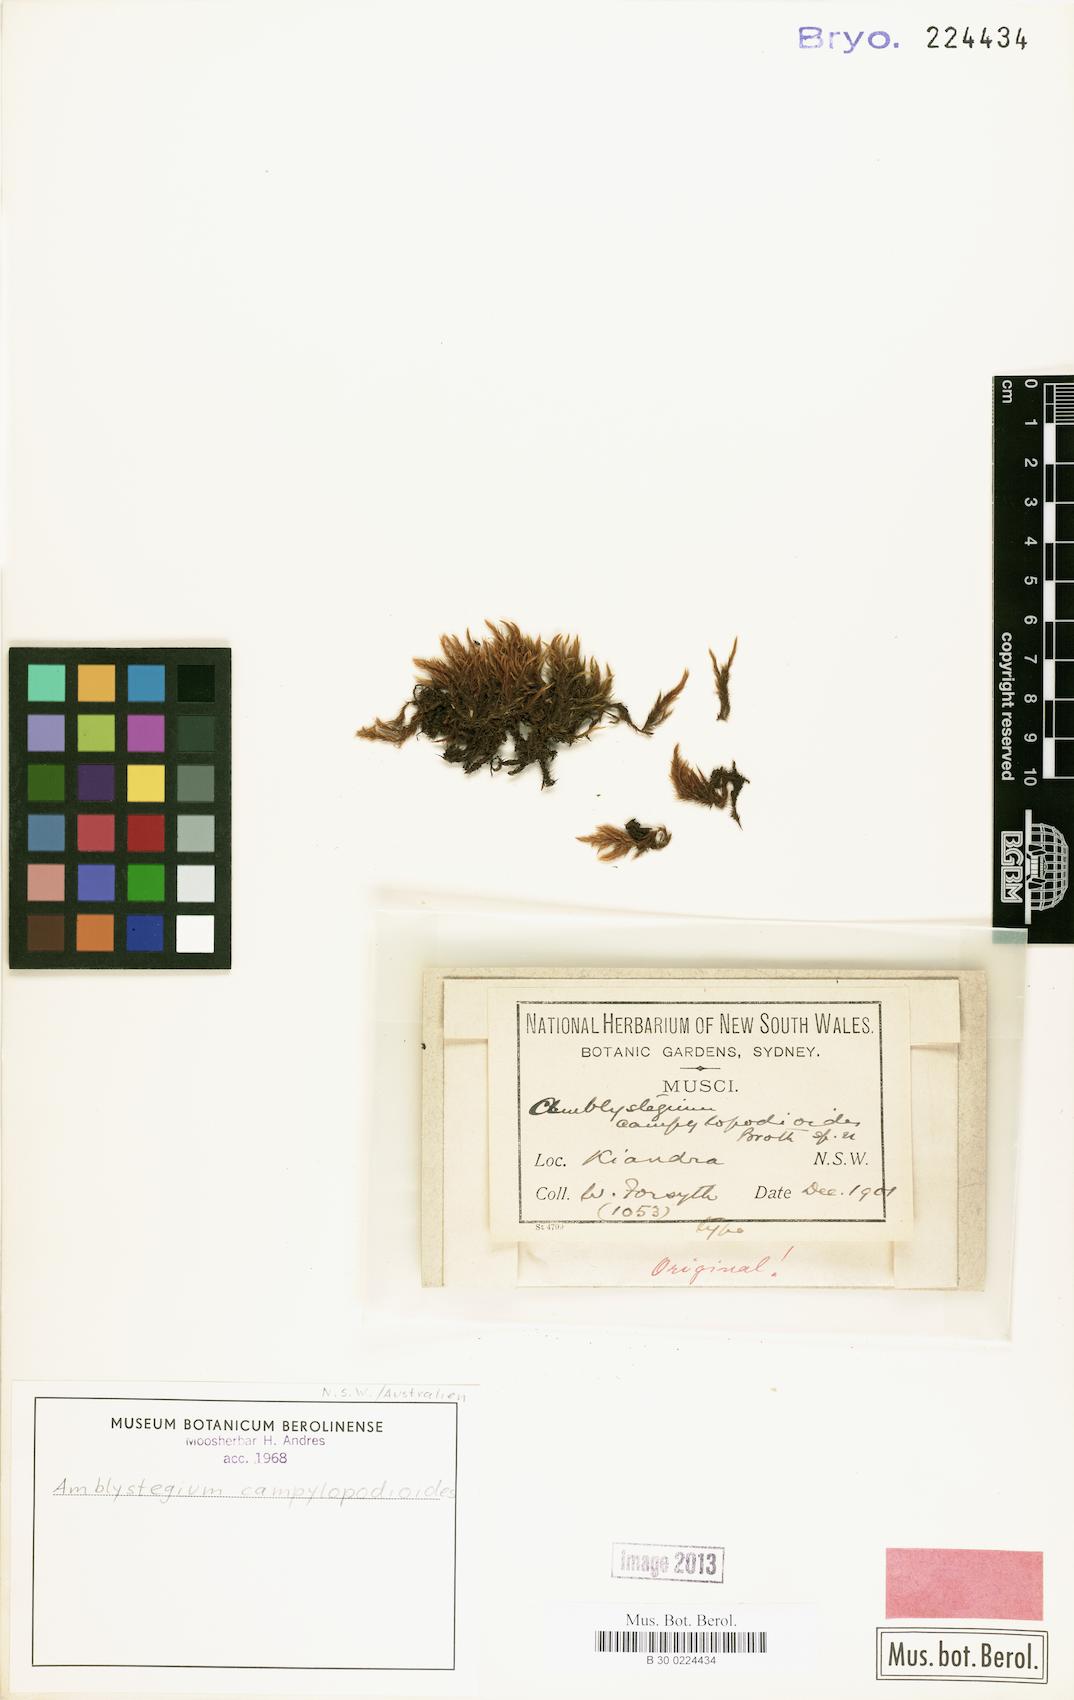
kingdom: Plantae
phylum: Bryophyta
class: Bryopsida
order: Hypnales
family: Amblystegiaceae
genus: Amblystegium
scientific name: Amblystegium
